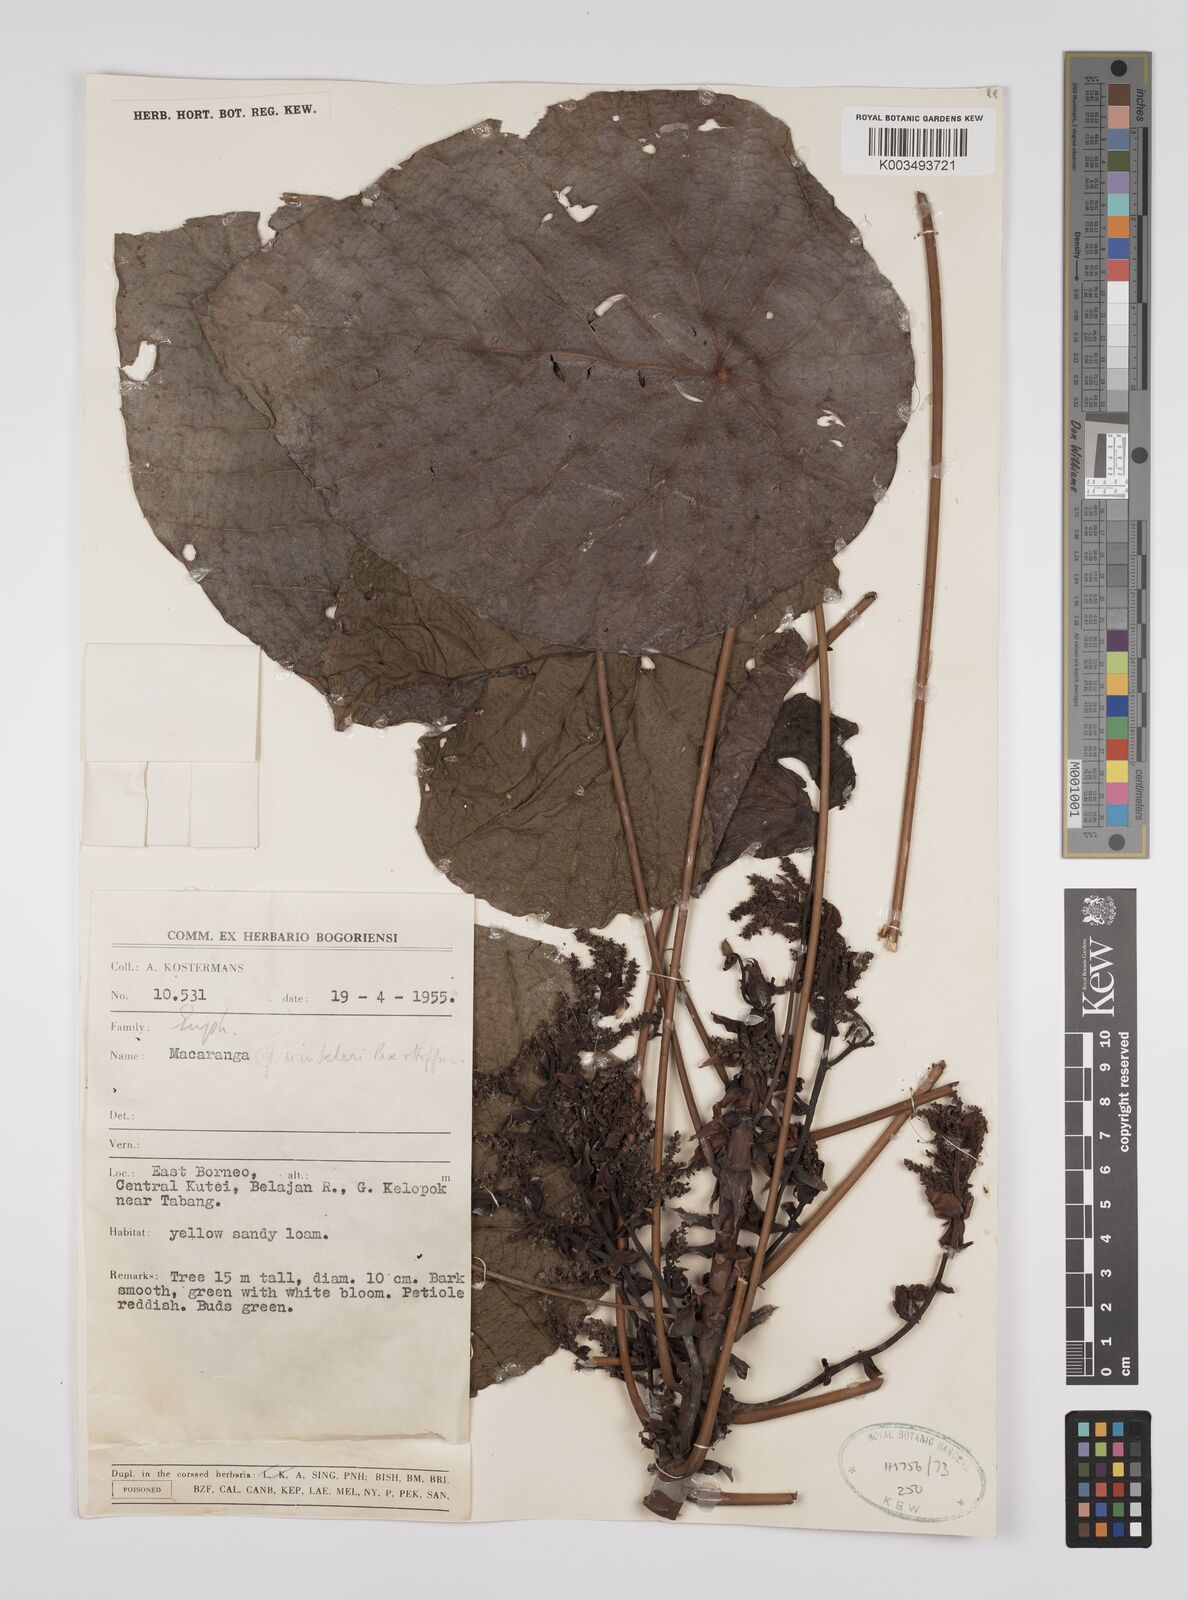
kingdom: Plantae
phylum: Tracheophyta
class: Magnoliopsida
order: Malpighiales
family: Euphorbiaceae
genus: Macaranga
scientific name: Macaranga winkleri
